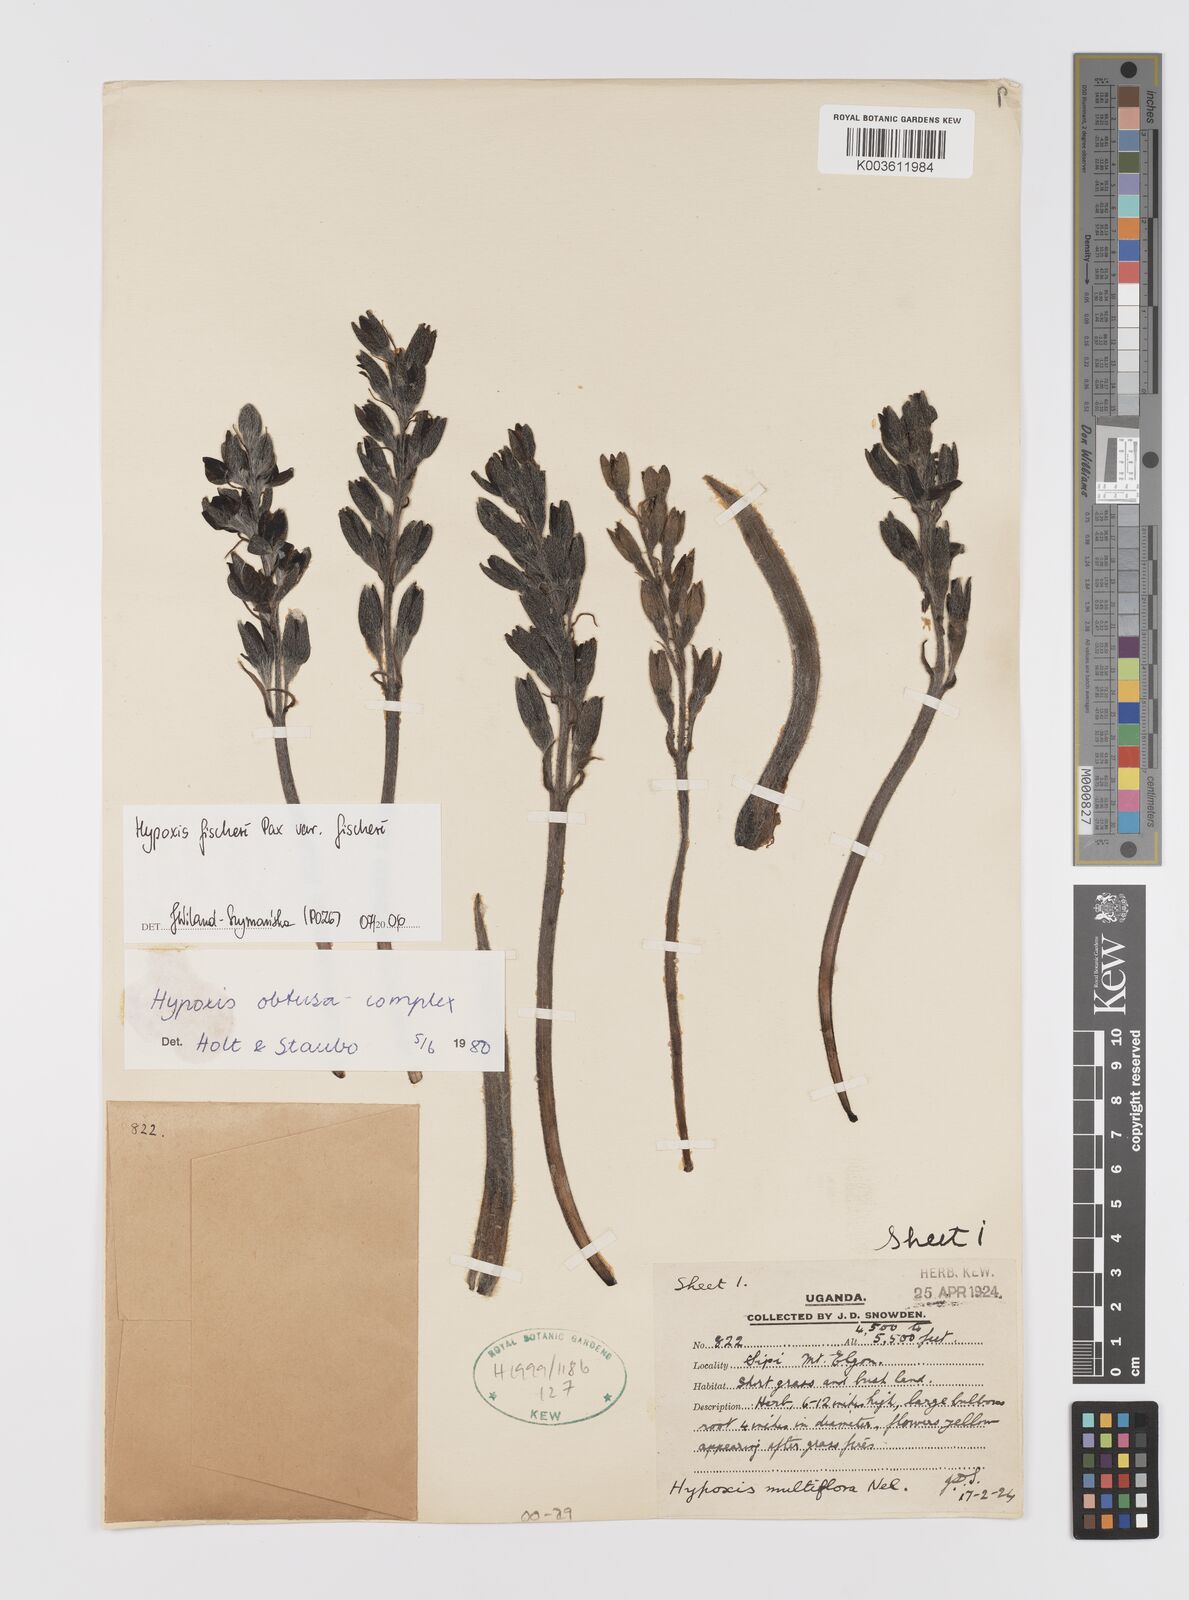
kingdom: Plantae
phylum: Tracheophyta
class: Liliopsida
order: Asparagales
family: Hypoxidaceae
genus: Hypoxis
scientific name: Hypoxis fischeri
